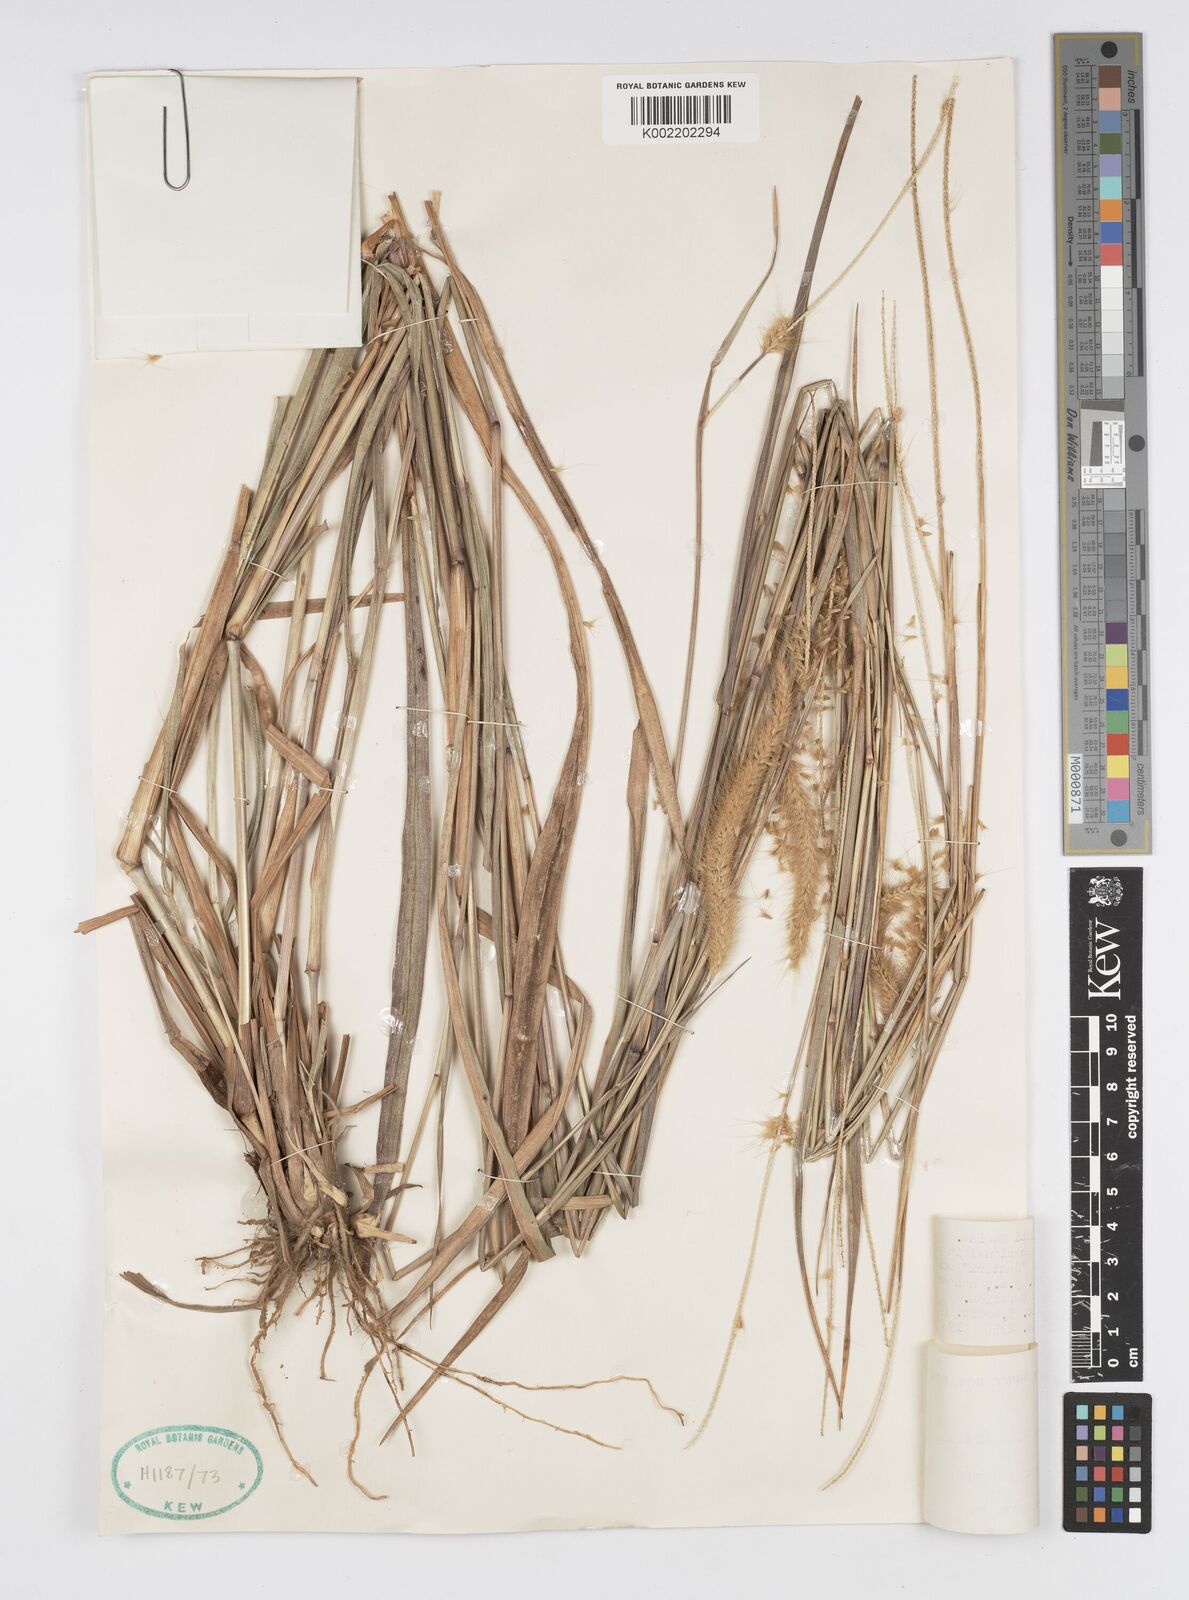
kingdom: Plantae
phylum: Tracheophyta
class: Liliopsida
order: Poales
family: Poaceae
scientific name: Poaceae
